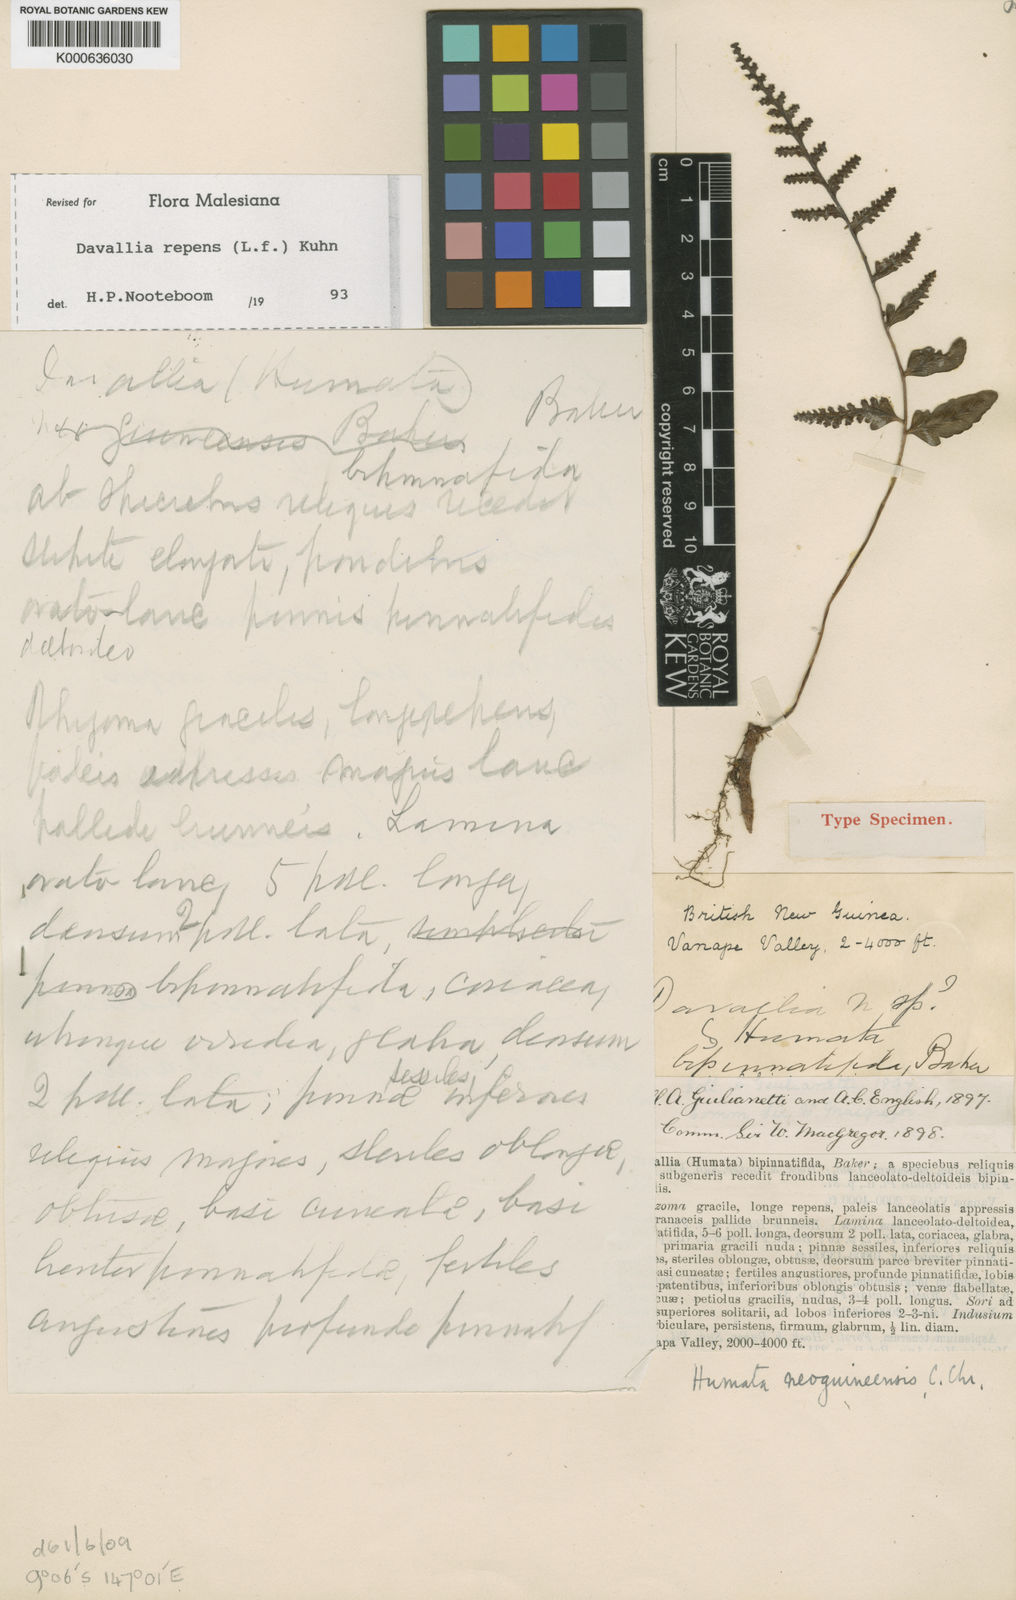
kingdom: Plantae
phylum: Tracheophyta
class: Polypodiopsida
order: Polypodiales
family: Davalliaceae
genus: Davallia
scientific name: Davallia repens
